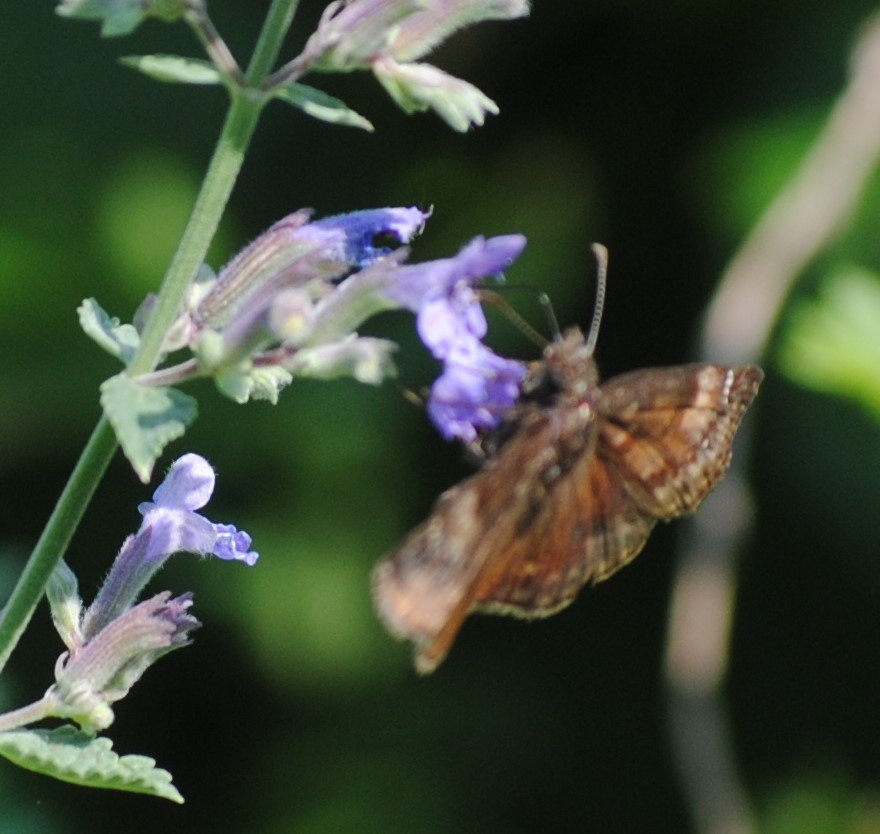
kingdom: Animalia
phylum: Arthropoda
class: Insecta
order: Lepidoptera
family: Hesperiidae
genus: Gesta
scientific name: Gesta
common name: Wild Indigo Duskywing
